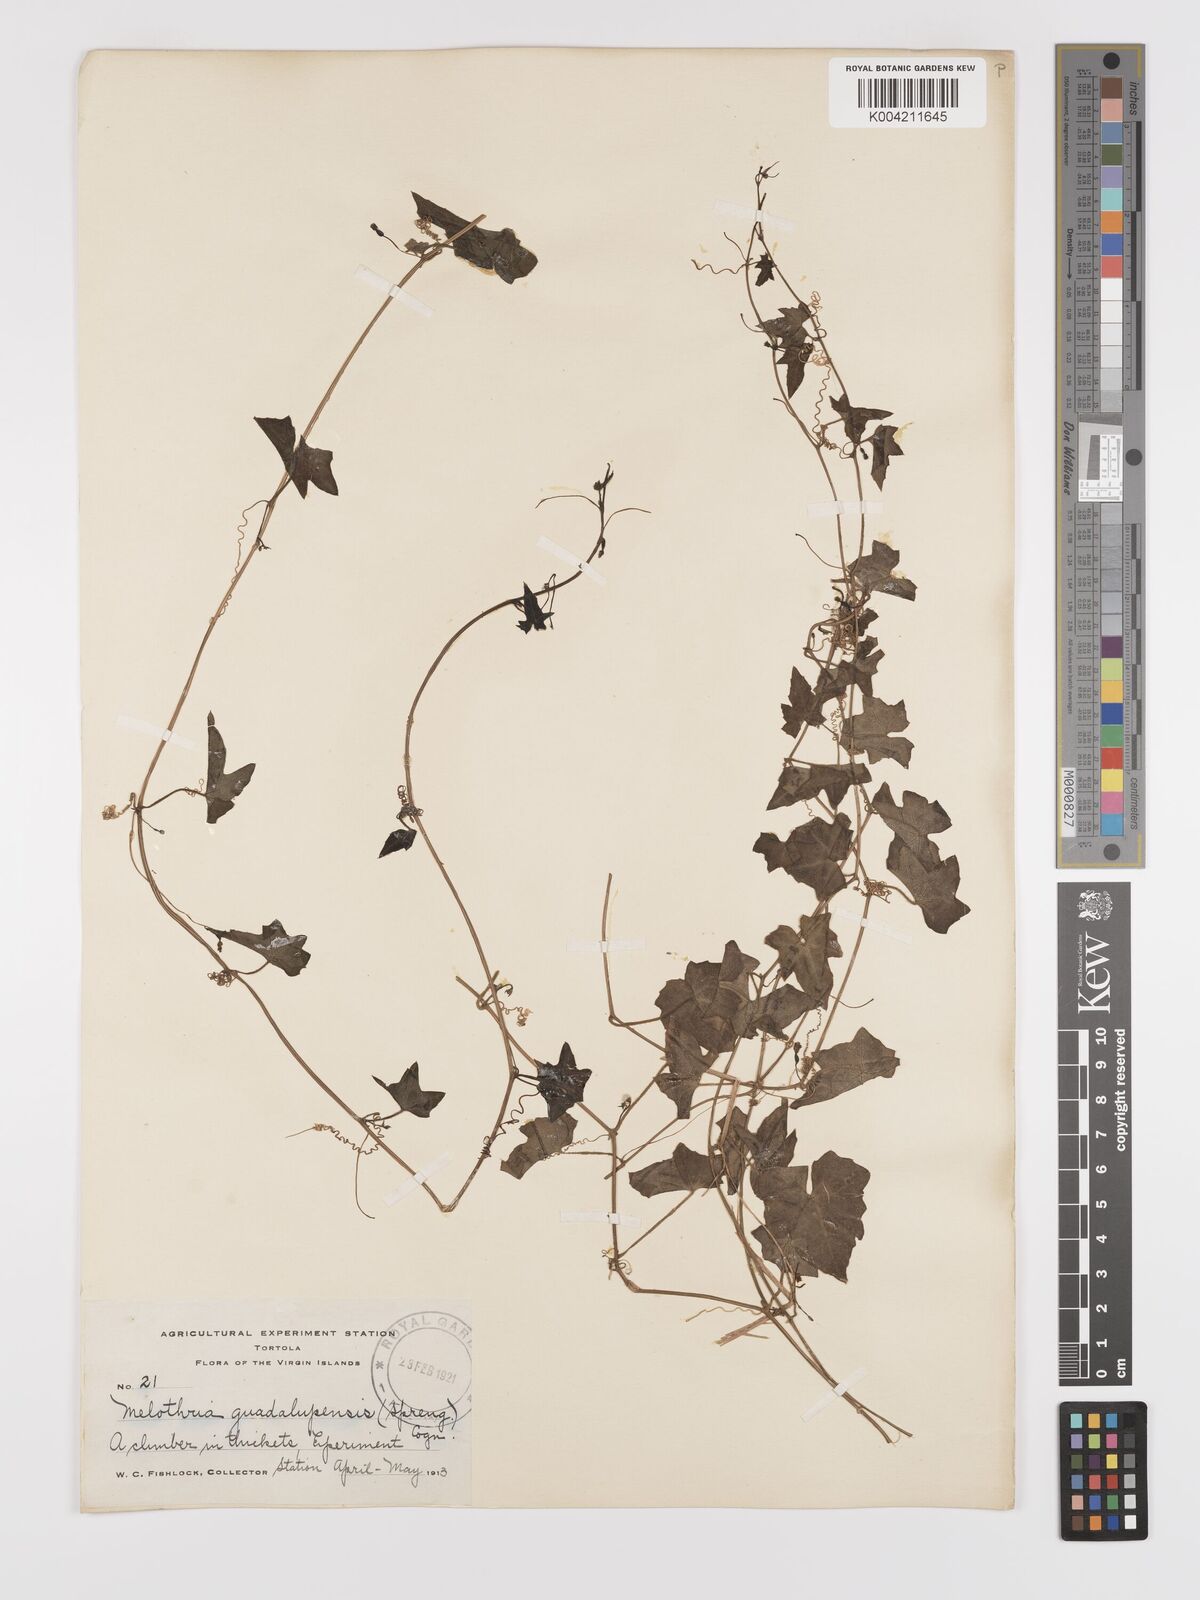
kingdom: Plantae
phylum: Tracheophyta
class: Magnoliopsida
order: Cucurbitales
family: Cucurbitaceae
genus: Melothria
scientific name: Melothria
